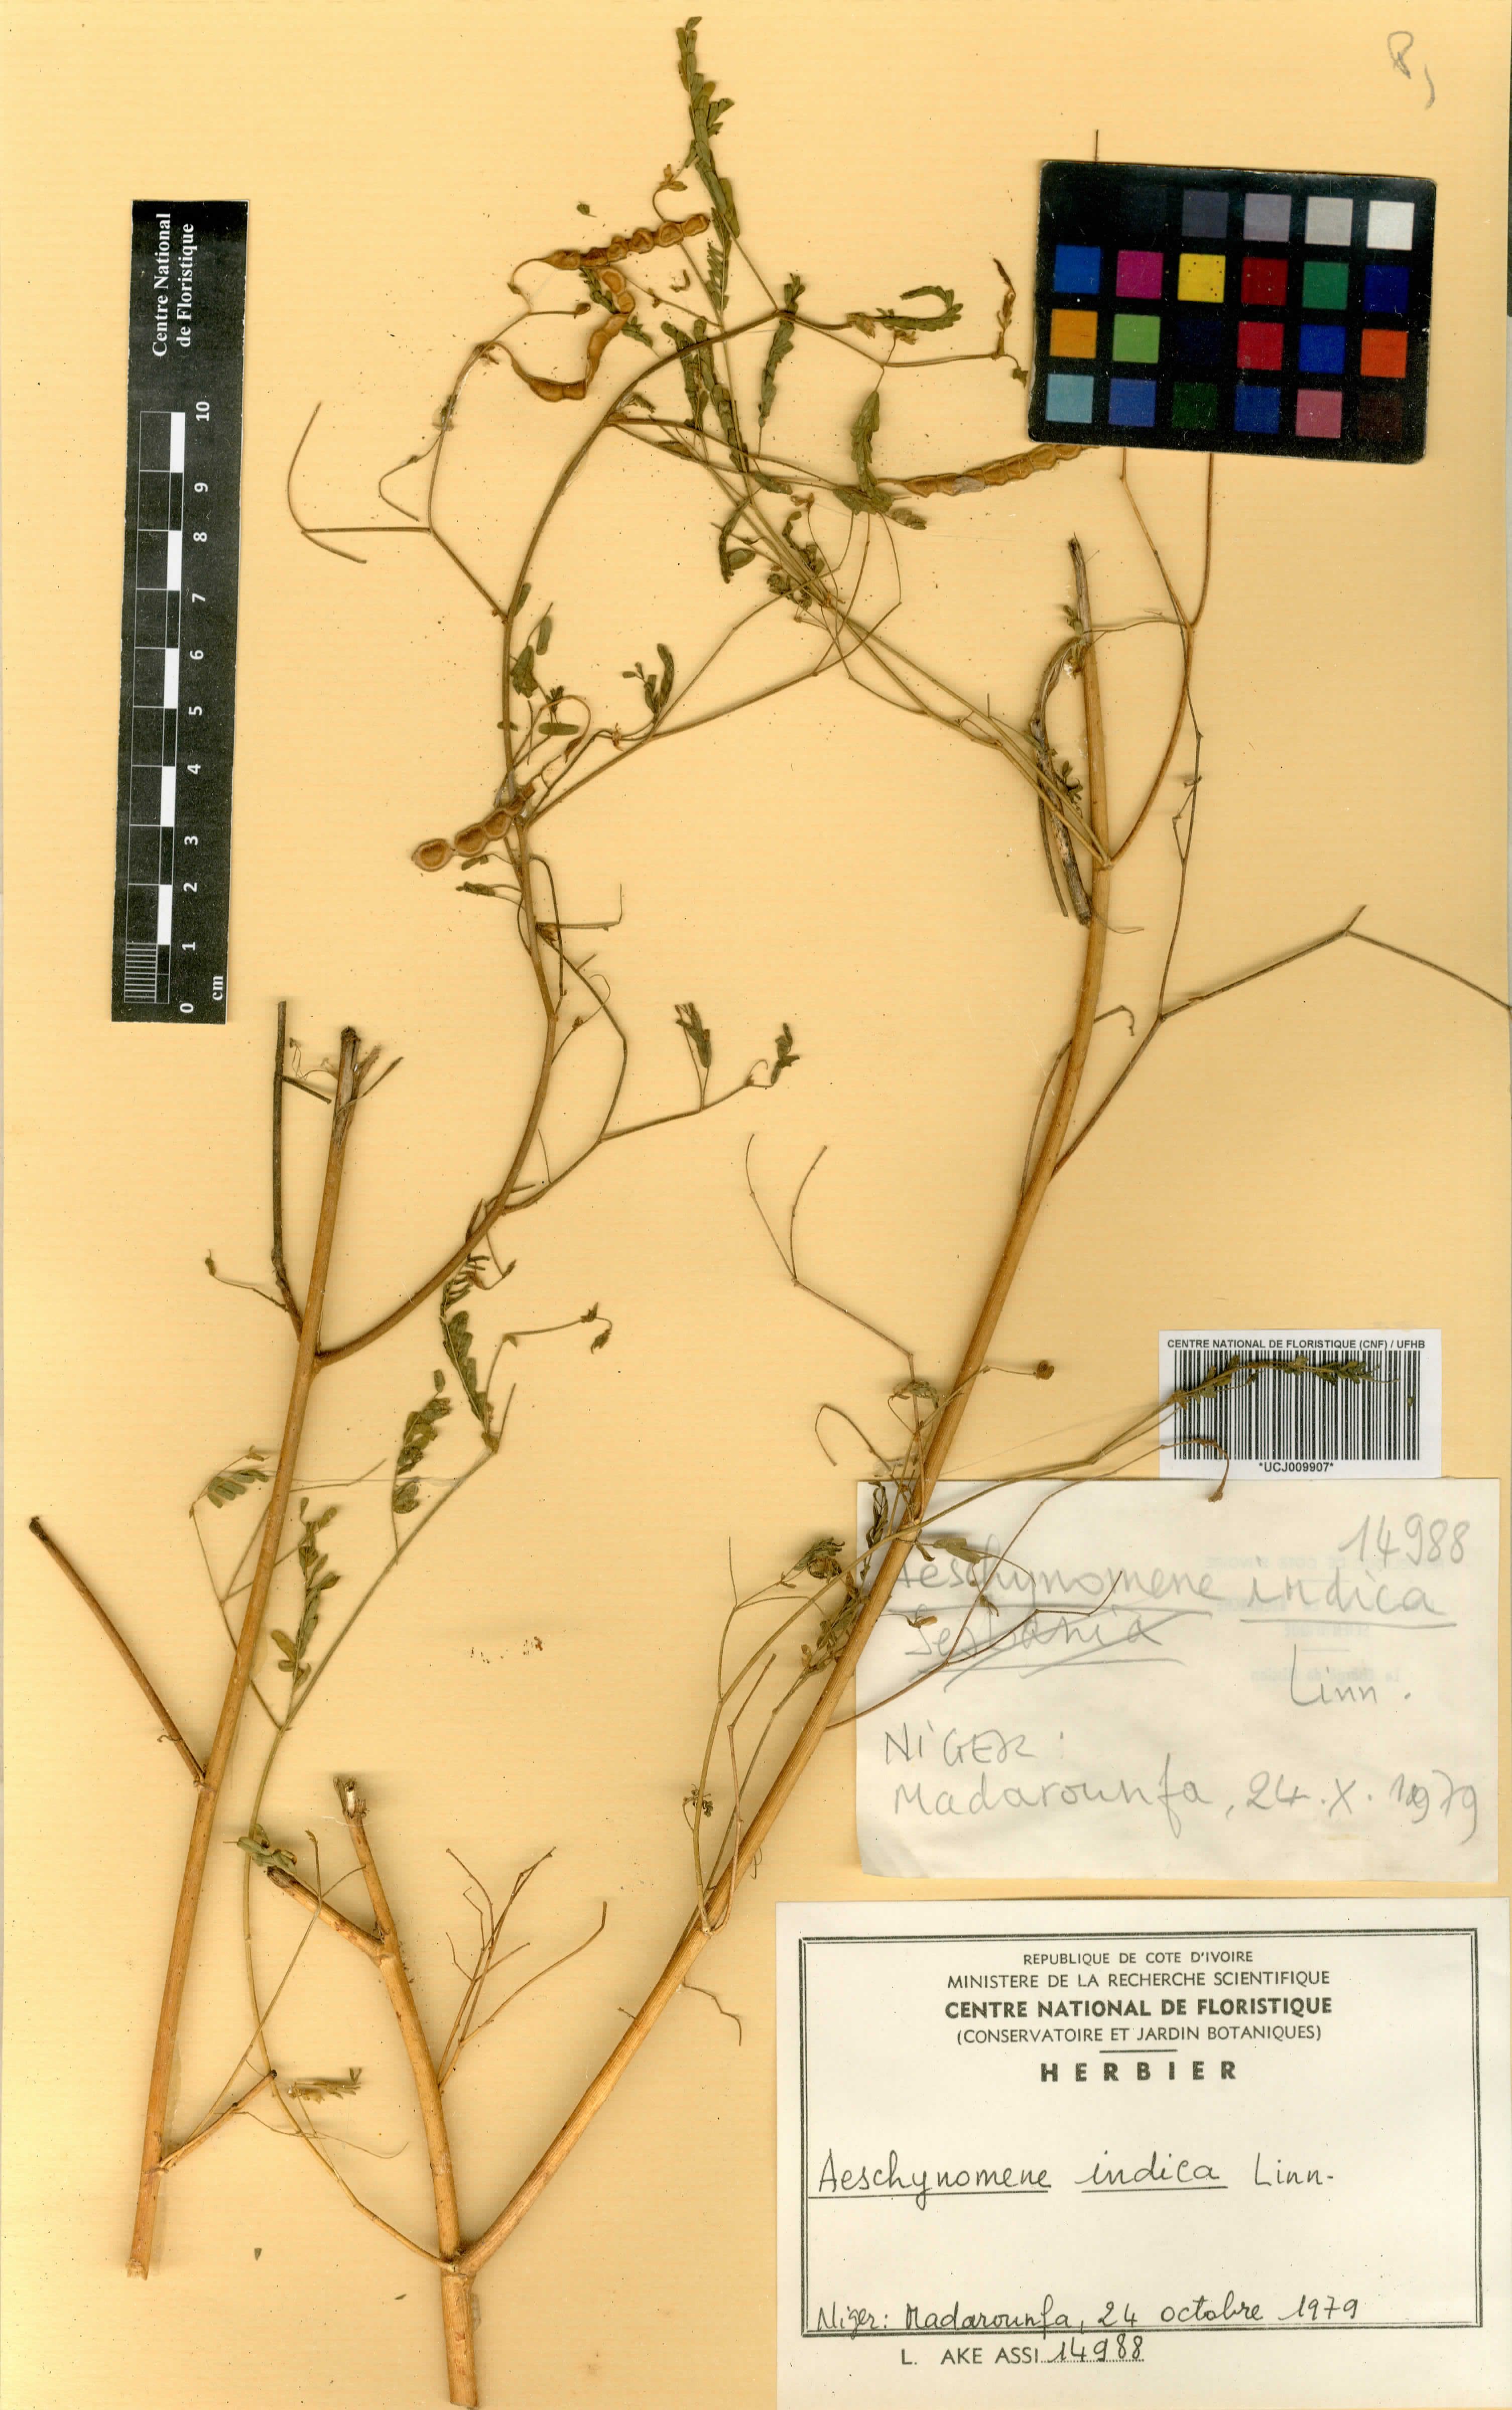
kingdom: Plantae
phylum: Tracheophyta
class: Magnoliopsida
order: Fabales
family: Fabaceae
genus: Aeschynomene
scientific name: Aeschynomene indica
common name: Indian jointvetch
